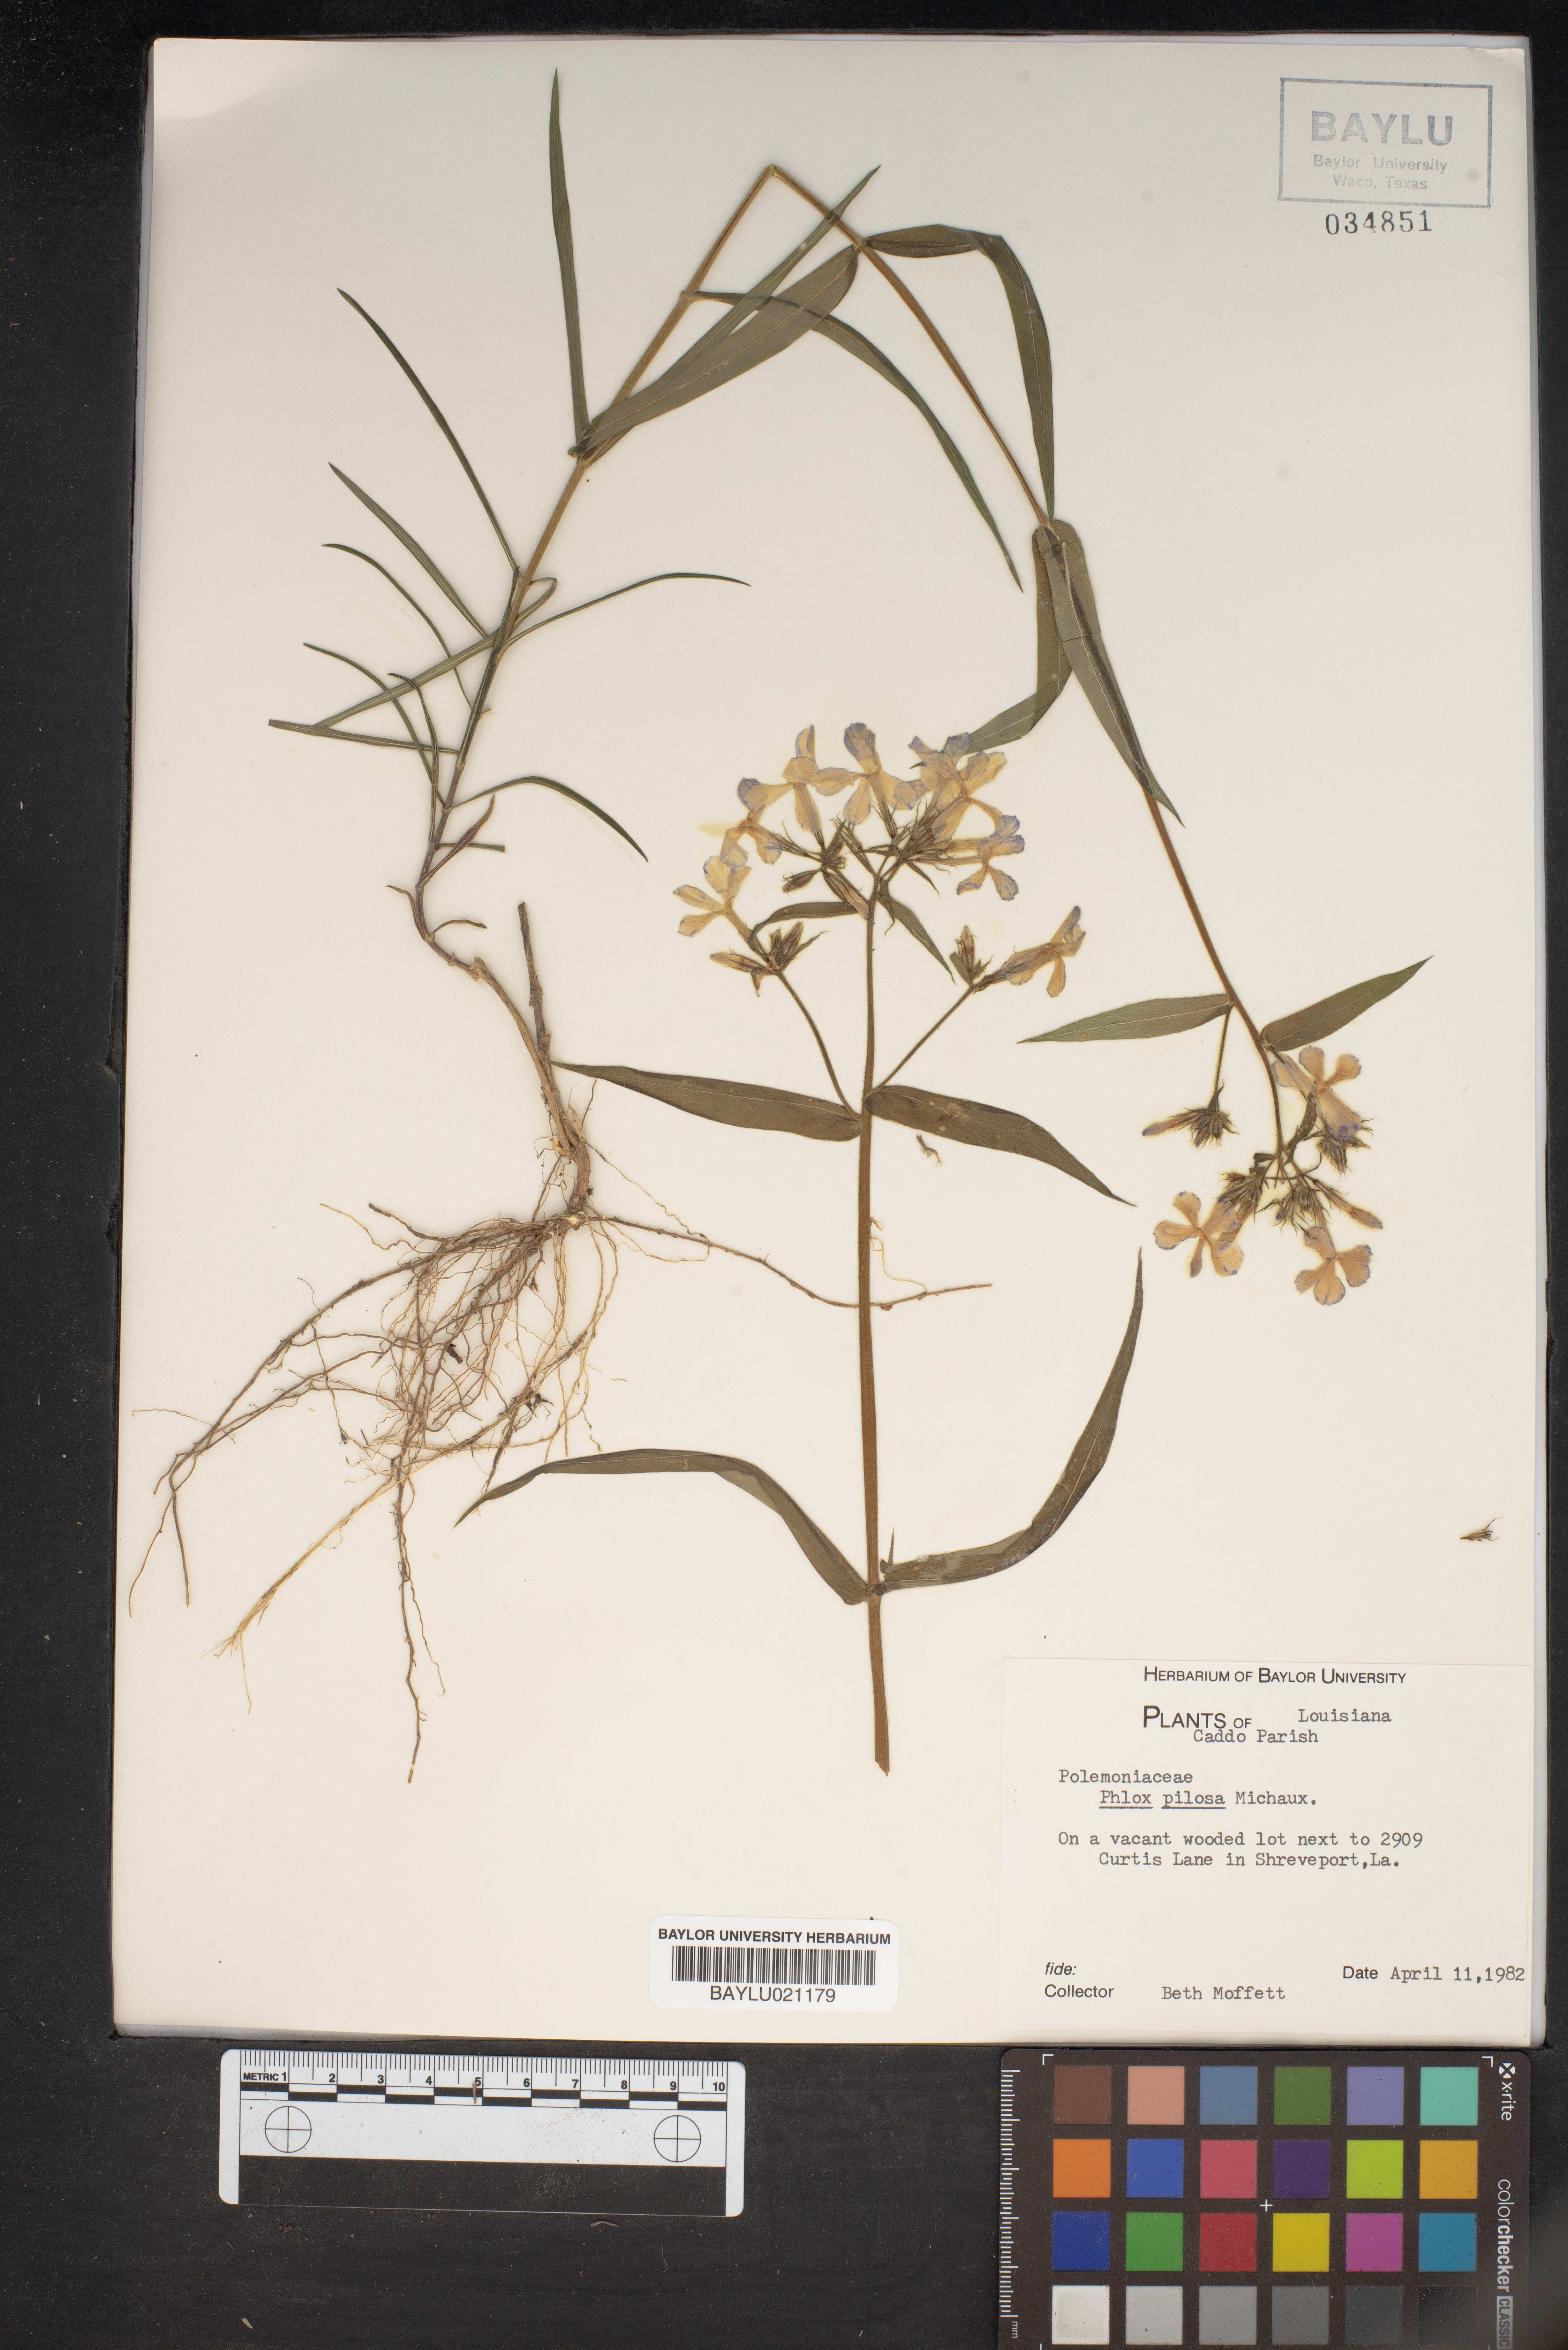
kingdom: Plantae
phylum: Tracheophyta
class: Magnoliopsida
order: Ericales
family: Polemoniaceae
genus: Phlox
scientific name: Phlox pilosa
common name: Prairie phlox
